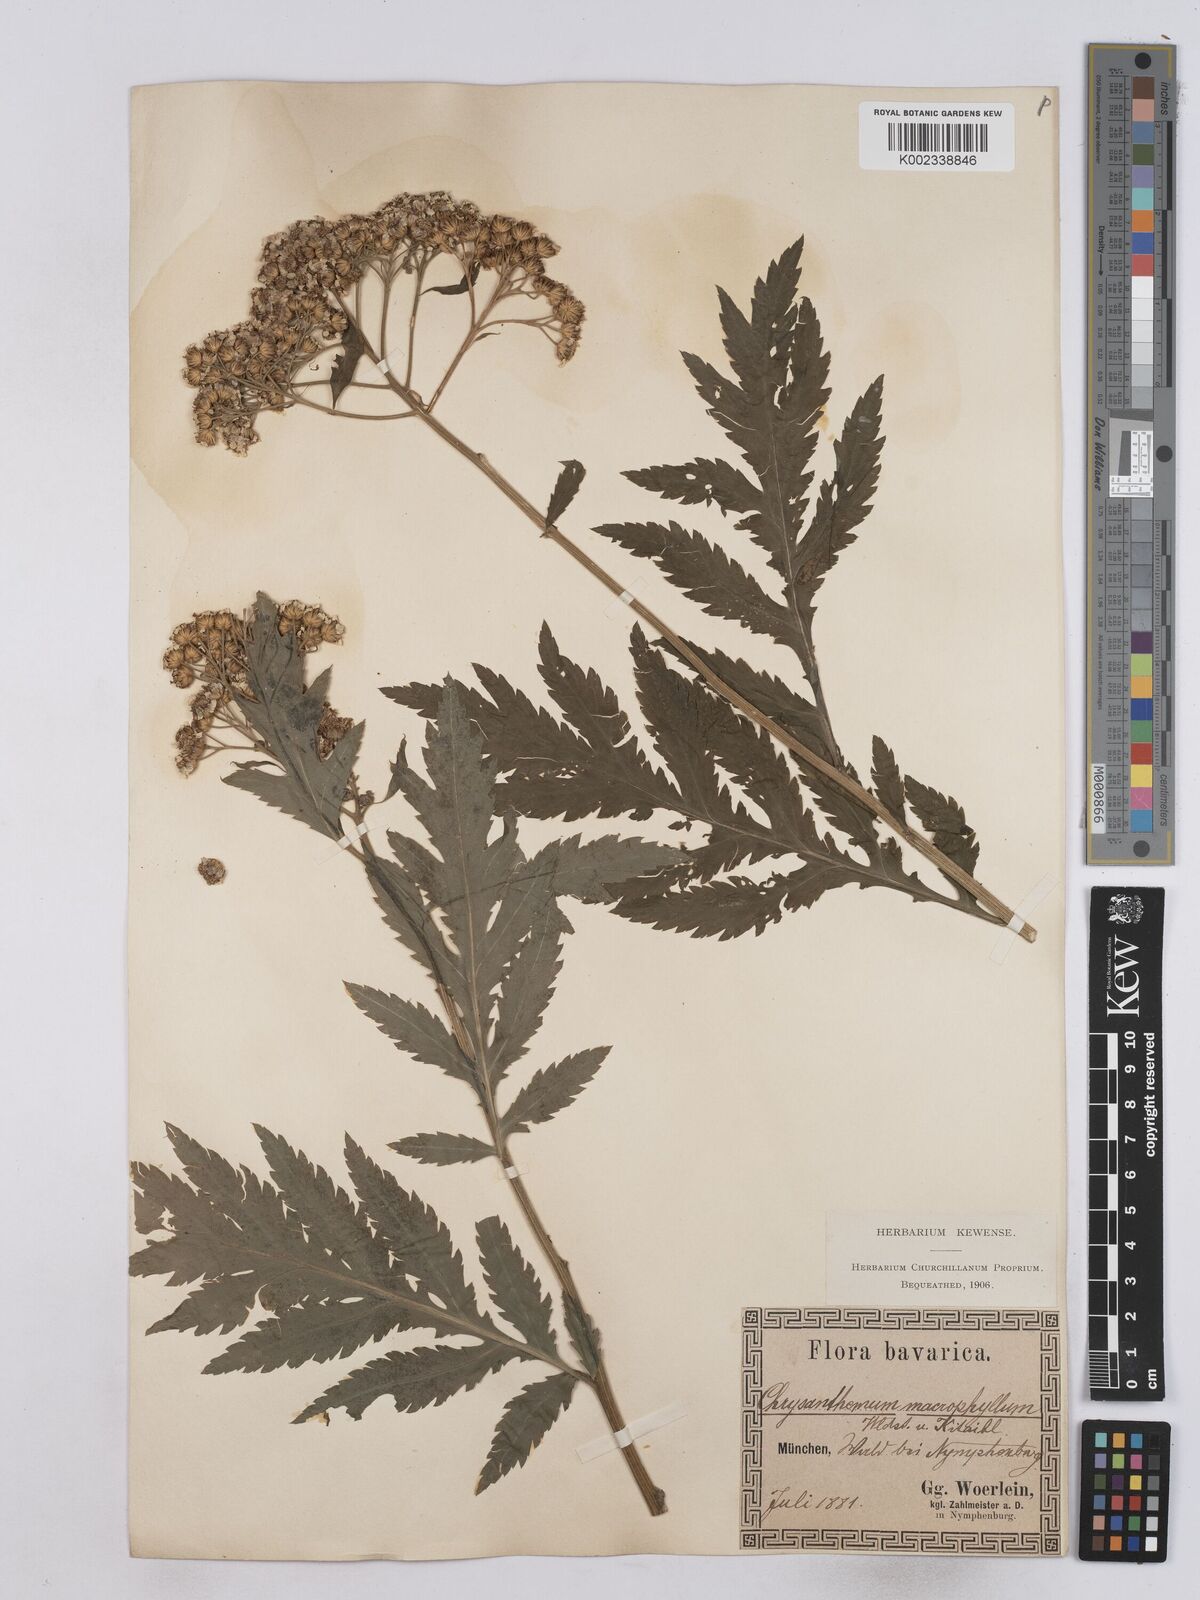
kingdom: Plantae
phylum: Tracheophyta
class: Magnoliopsida
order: Asterales
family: Asteraceae
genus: Tanacetum
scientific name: Tanacetum macrophyllum
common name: Rayed tansy
